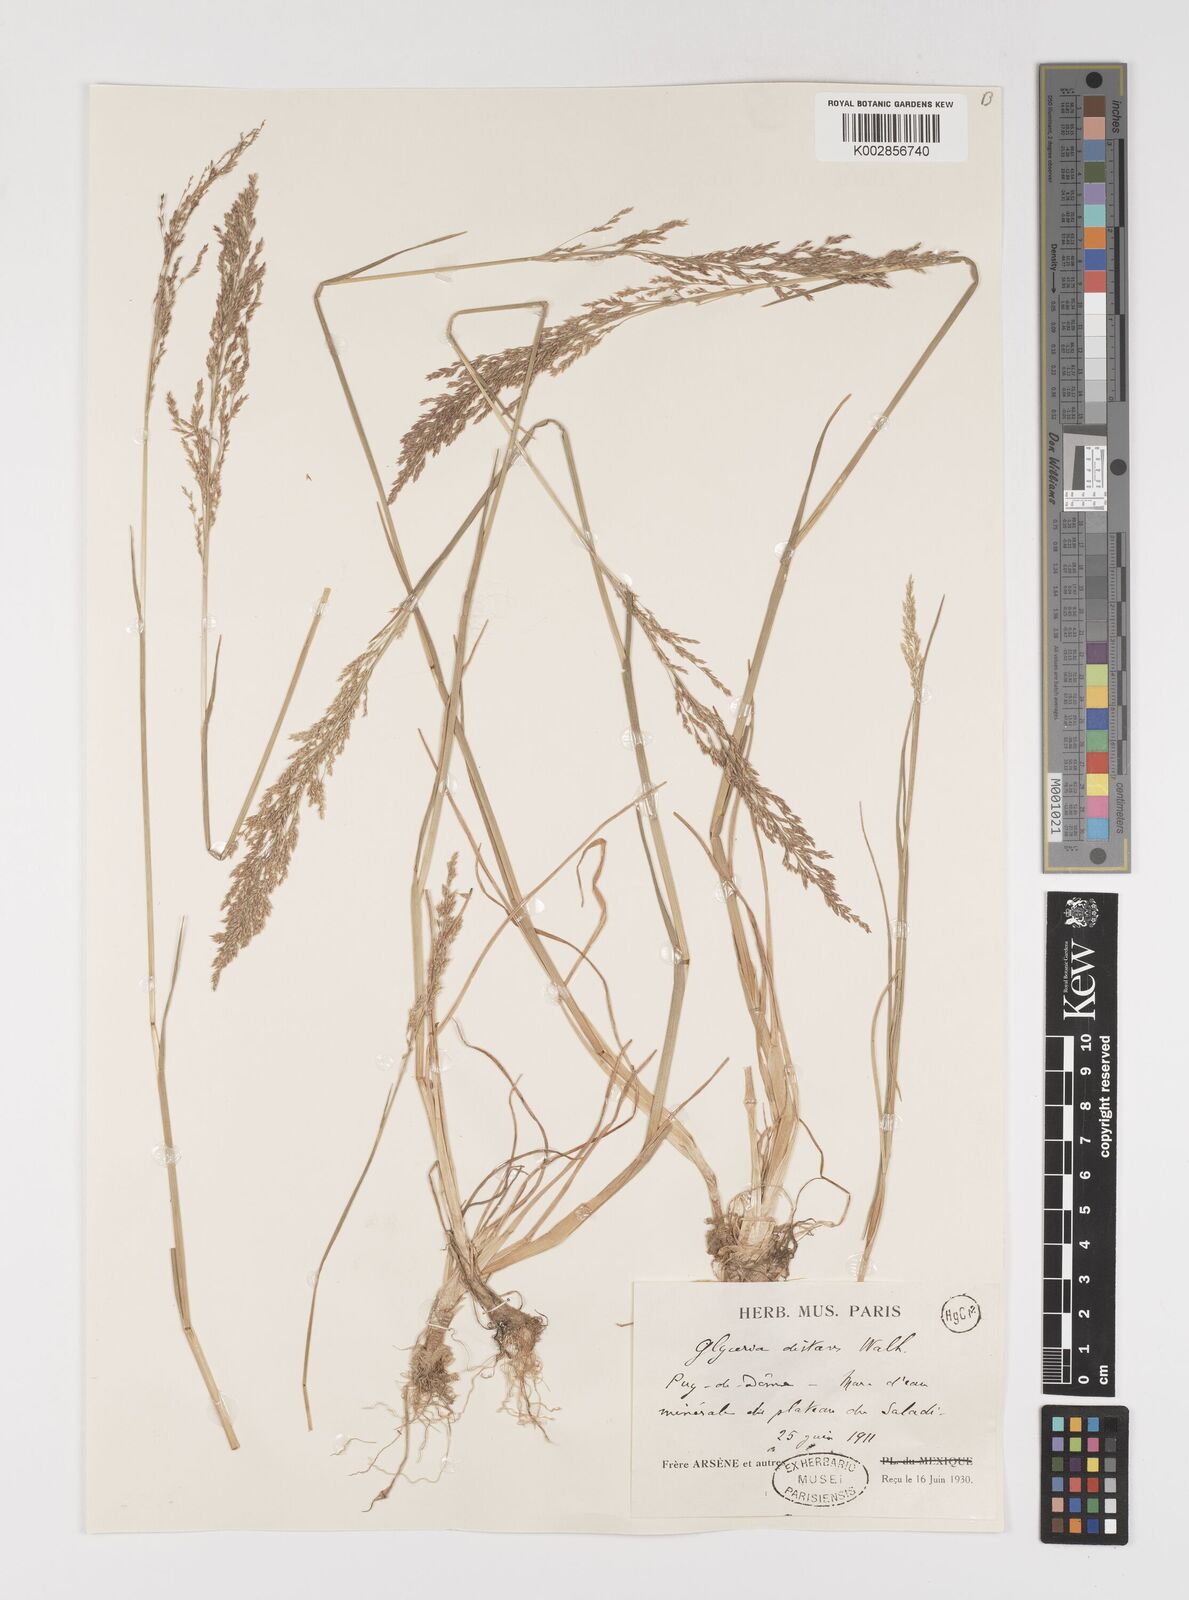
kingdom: Plantae
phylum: Tracheophyta
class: Liliopsida
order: Poales
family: Poaceae
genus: Puccinellia
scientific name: Puccinellia
